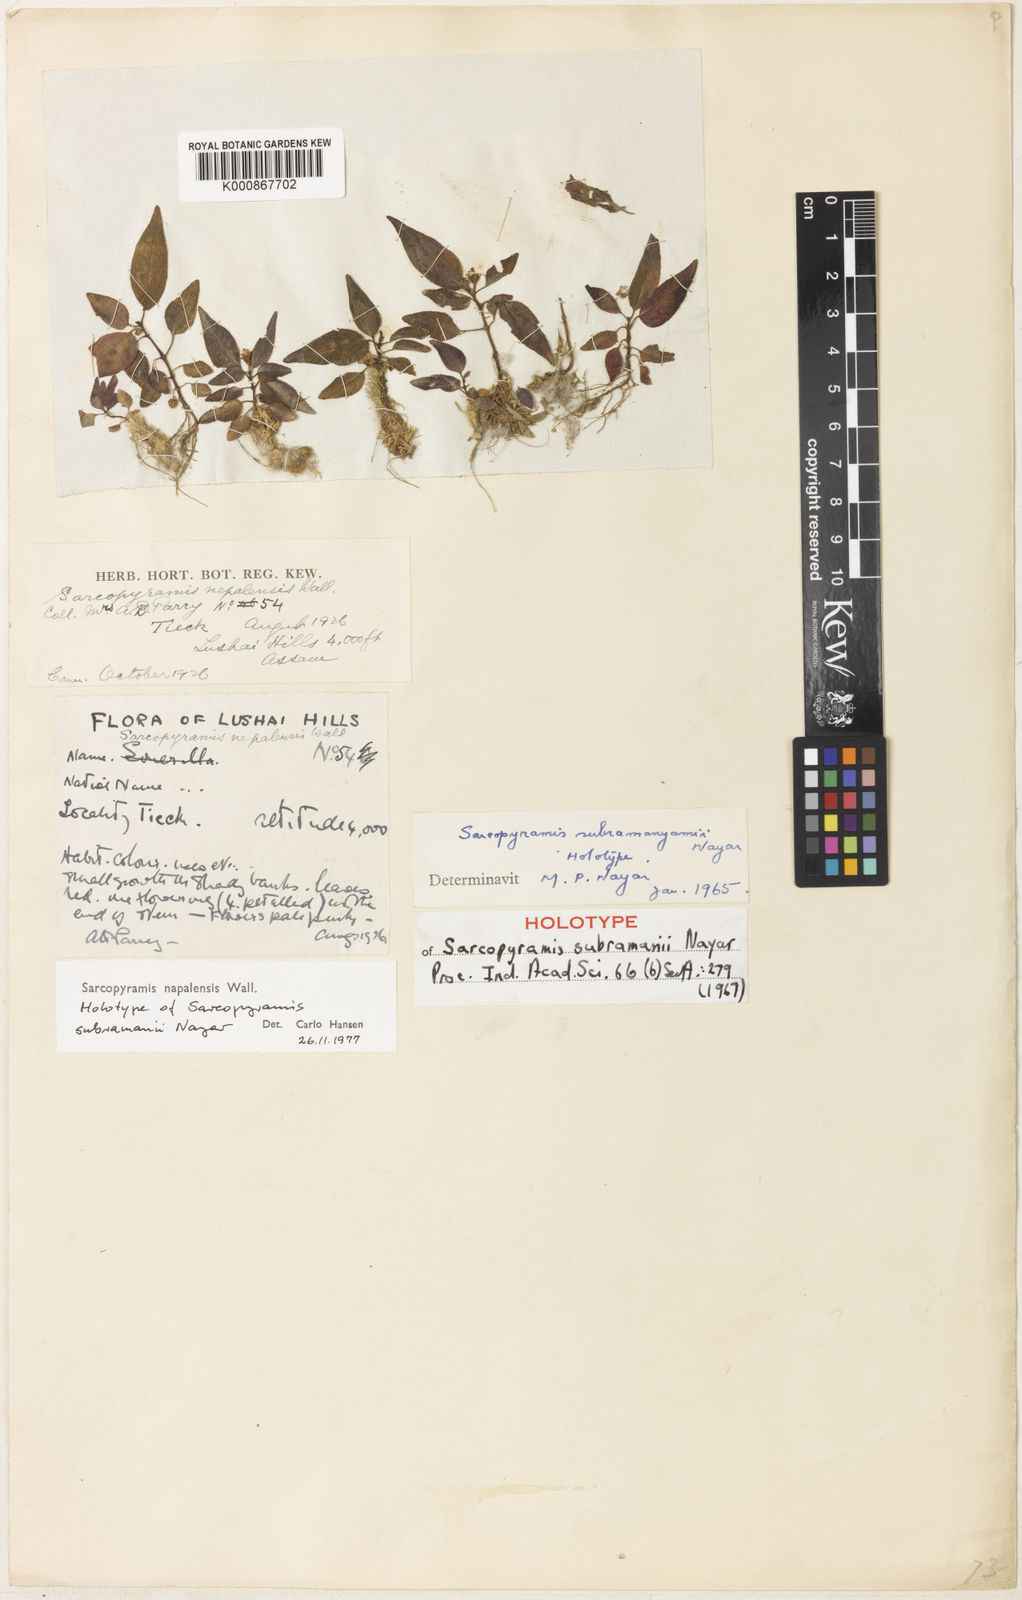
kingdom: Plantae
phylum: Tracheophyta
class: Magnoliopsida
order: Myrtales
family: Melastomataceae
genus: Sarcopyramis
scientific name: Sarcopyramis napalensis
